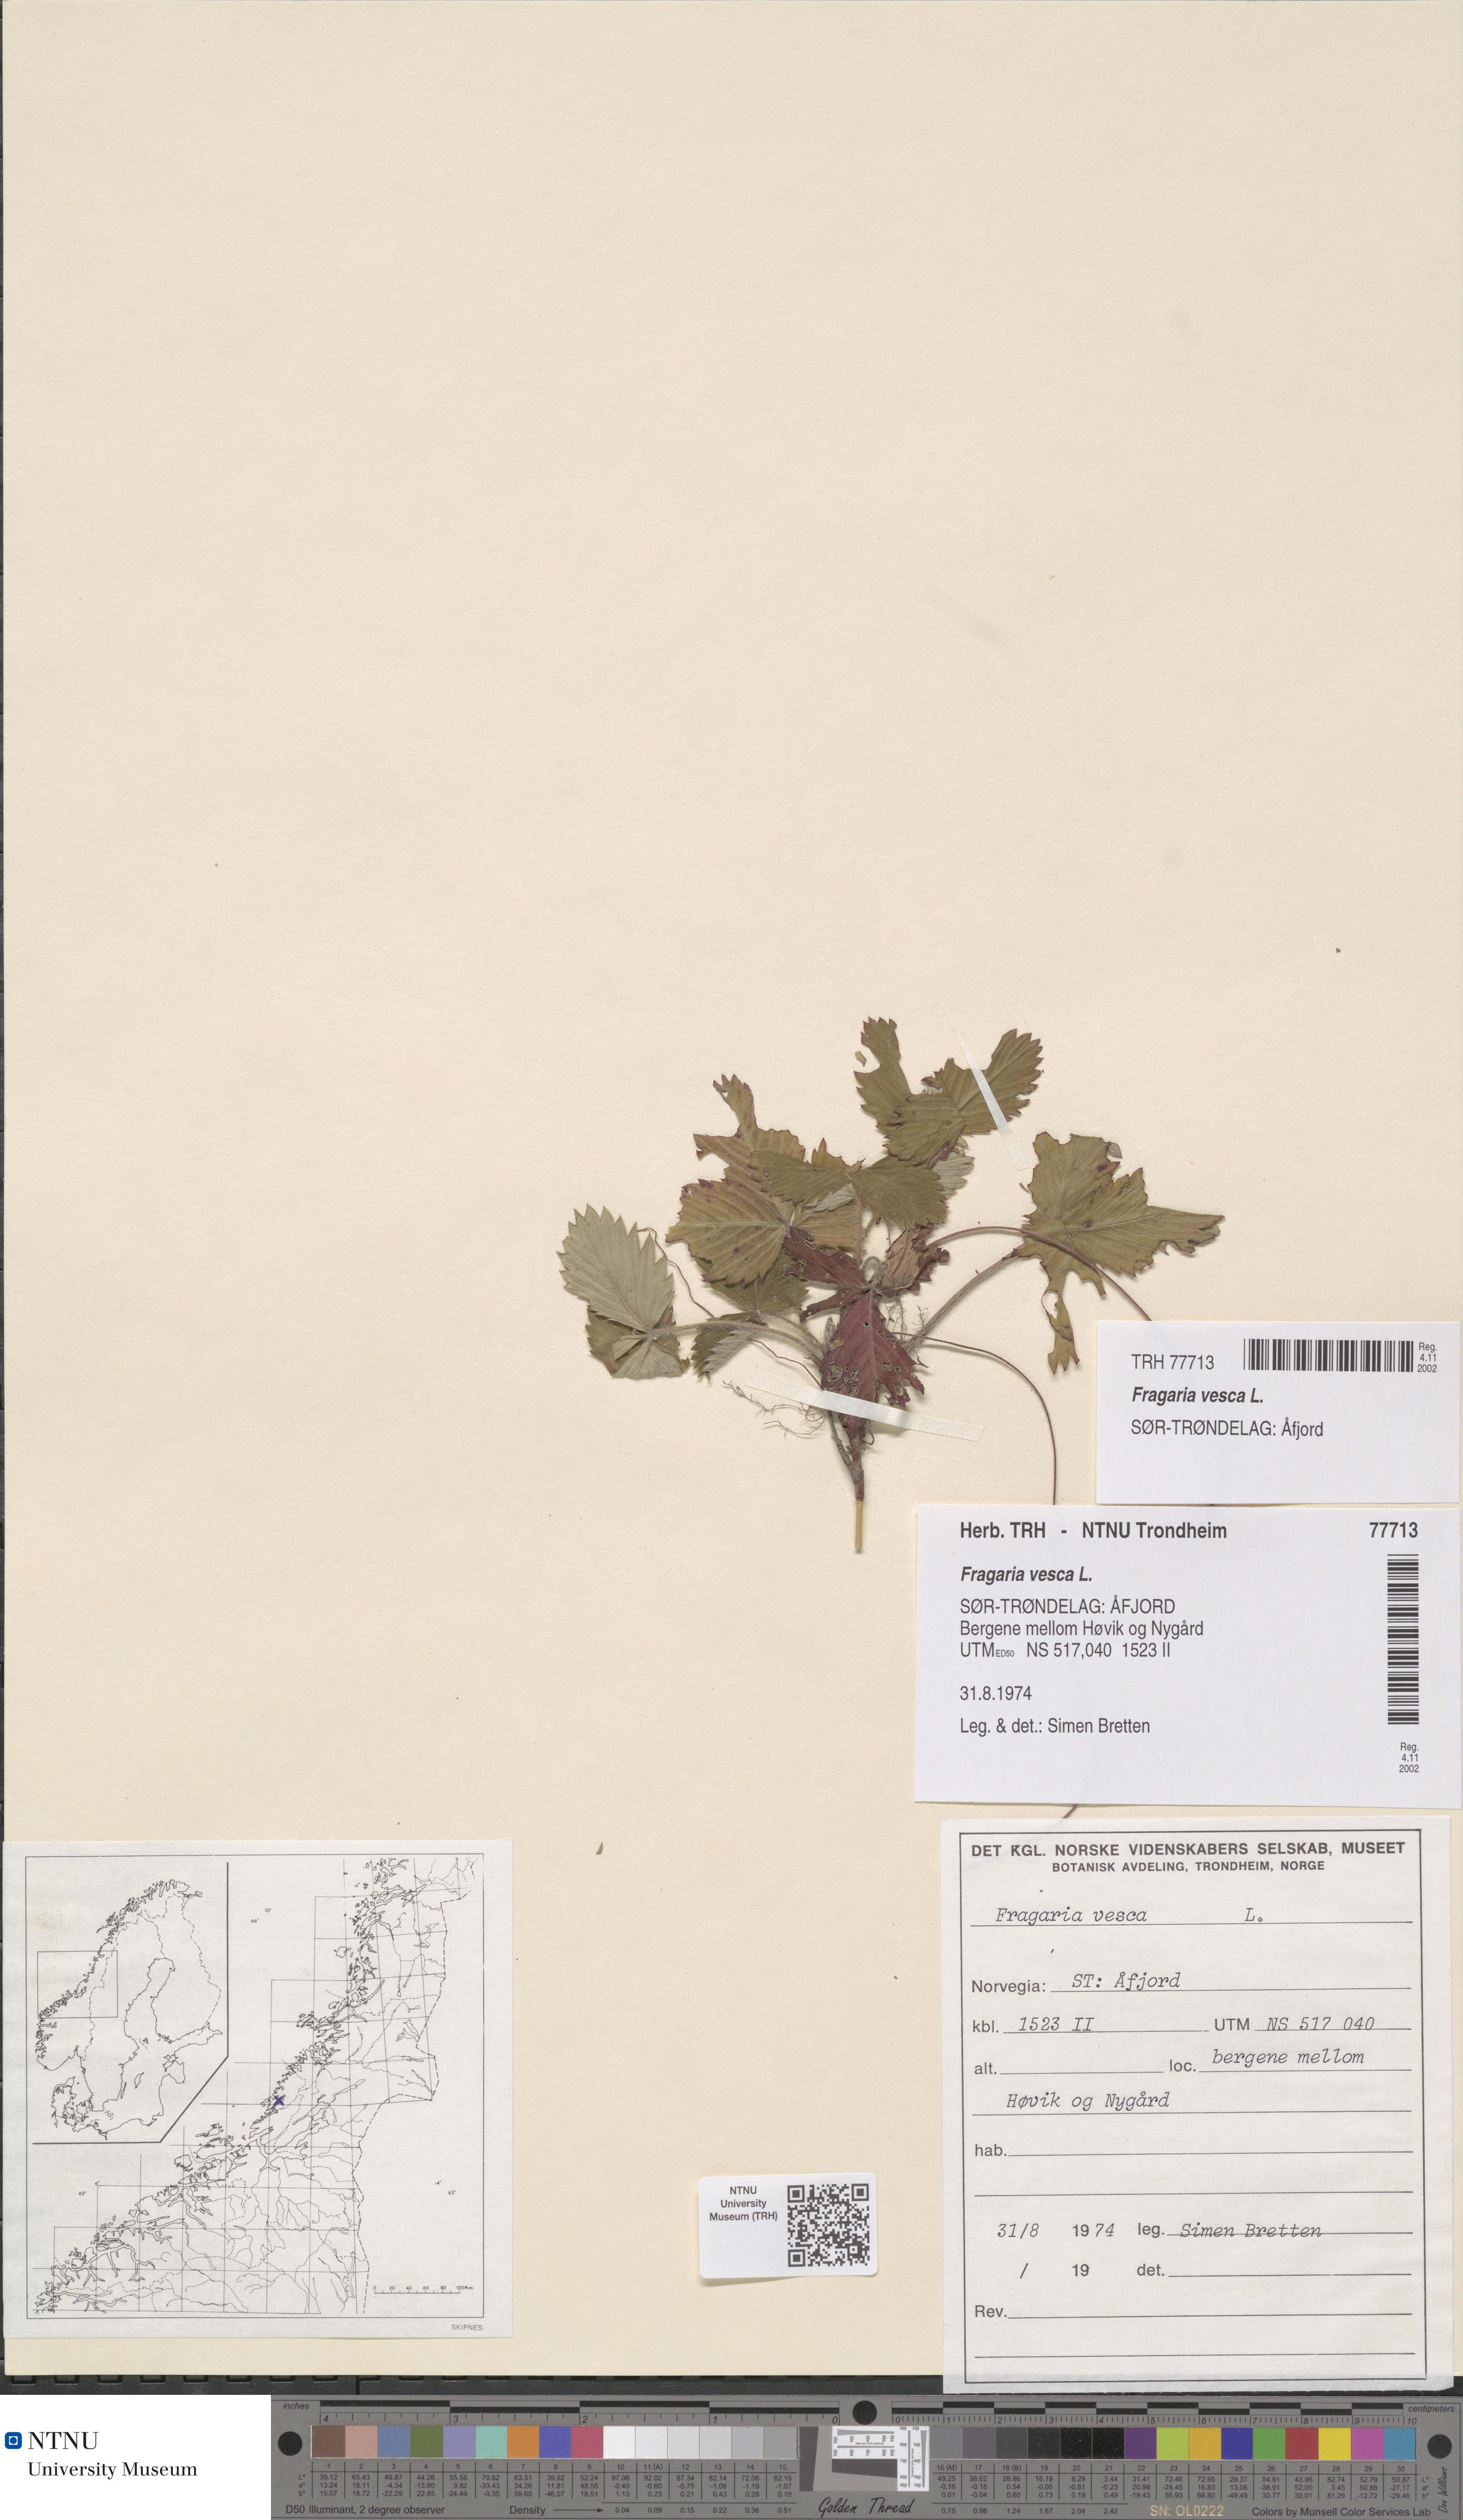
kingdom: Plantae
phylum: Tracheophyta
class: Magnoliopsida
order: Rosales
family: Rosaceae
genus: Fragaria
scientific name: Fragaria vesca
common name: Wild strawberry
